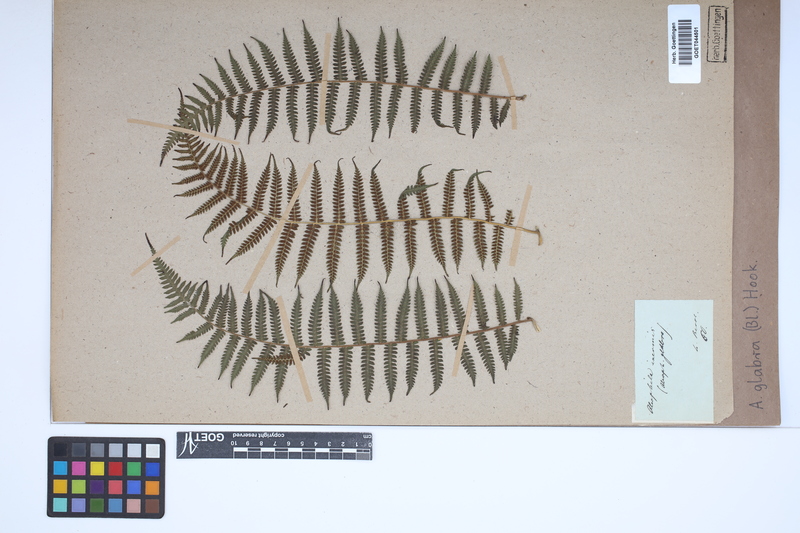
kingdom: Plantae
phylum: Tracheophyta
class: Polypodiopsida
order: Cyatheales
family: Cyatheaceae
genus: Gymnosphaera
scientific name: Gymnosphaera glabra
